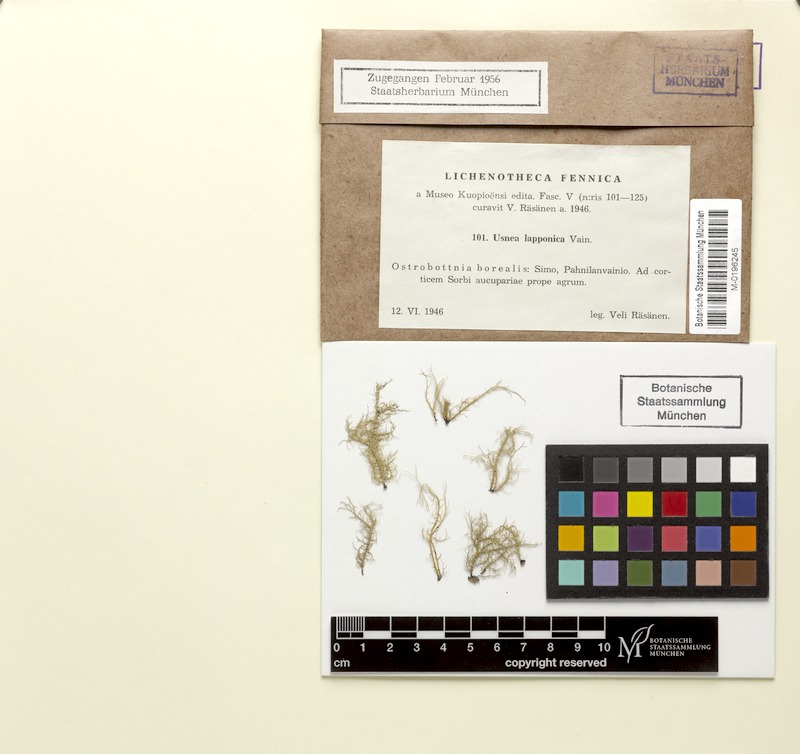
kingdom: Fungi
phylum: Ascomycota
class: Lecanoromycetes
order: Lecanorales
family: Parmeliaceae
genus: Usnea
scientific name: Usnea lapponica
